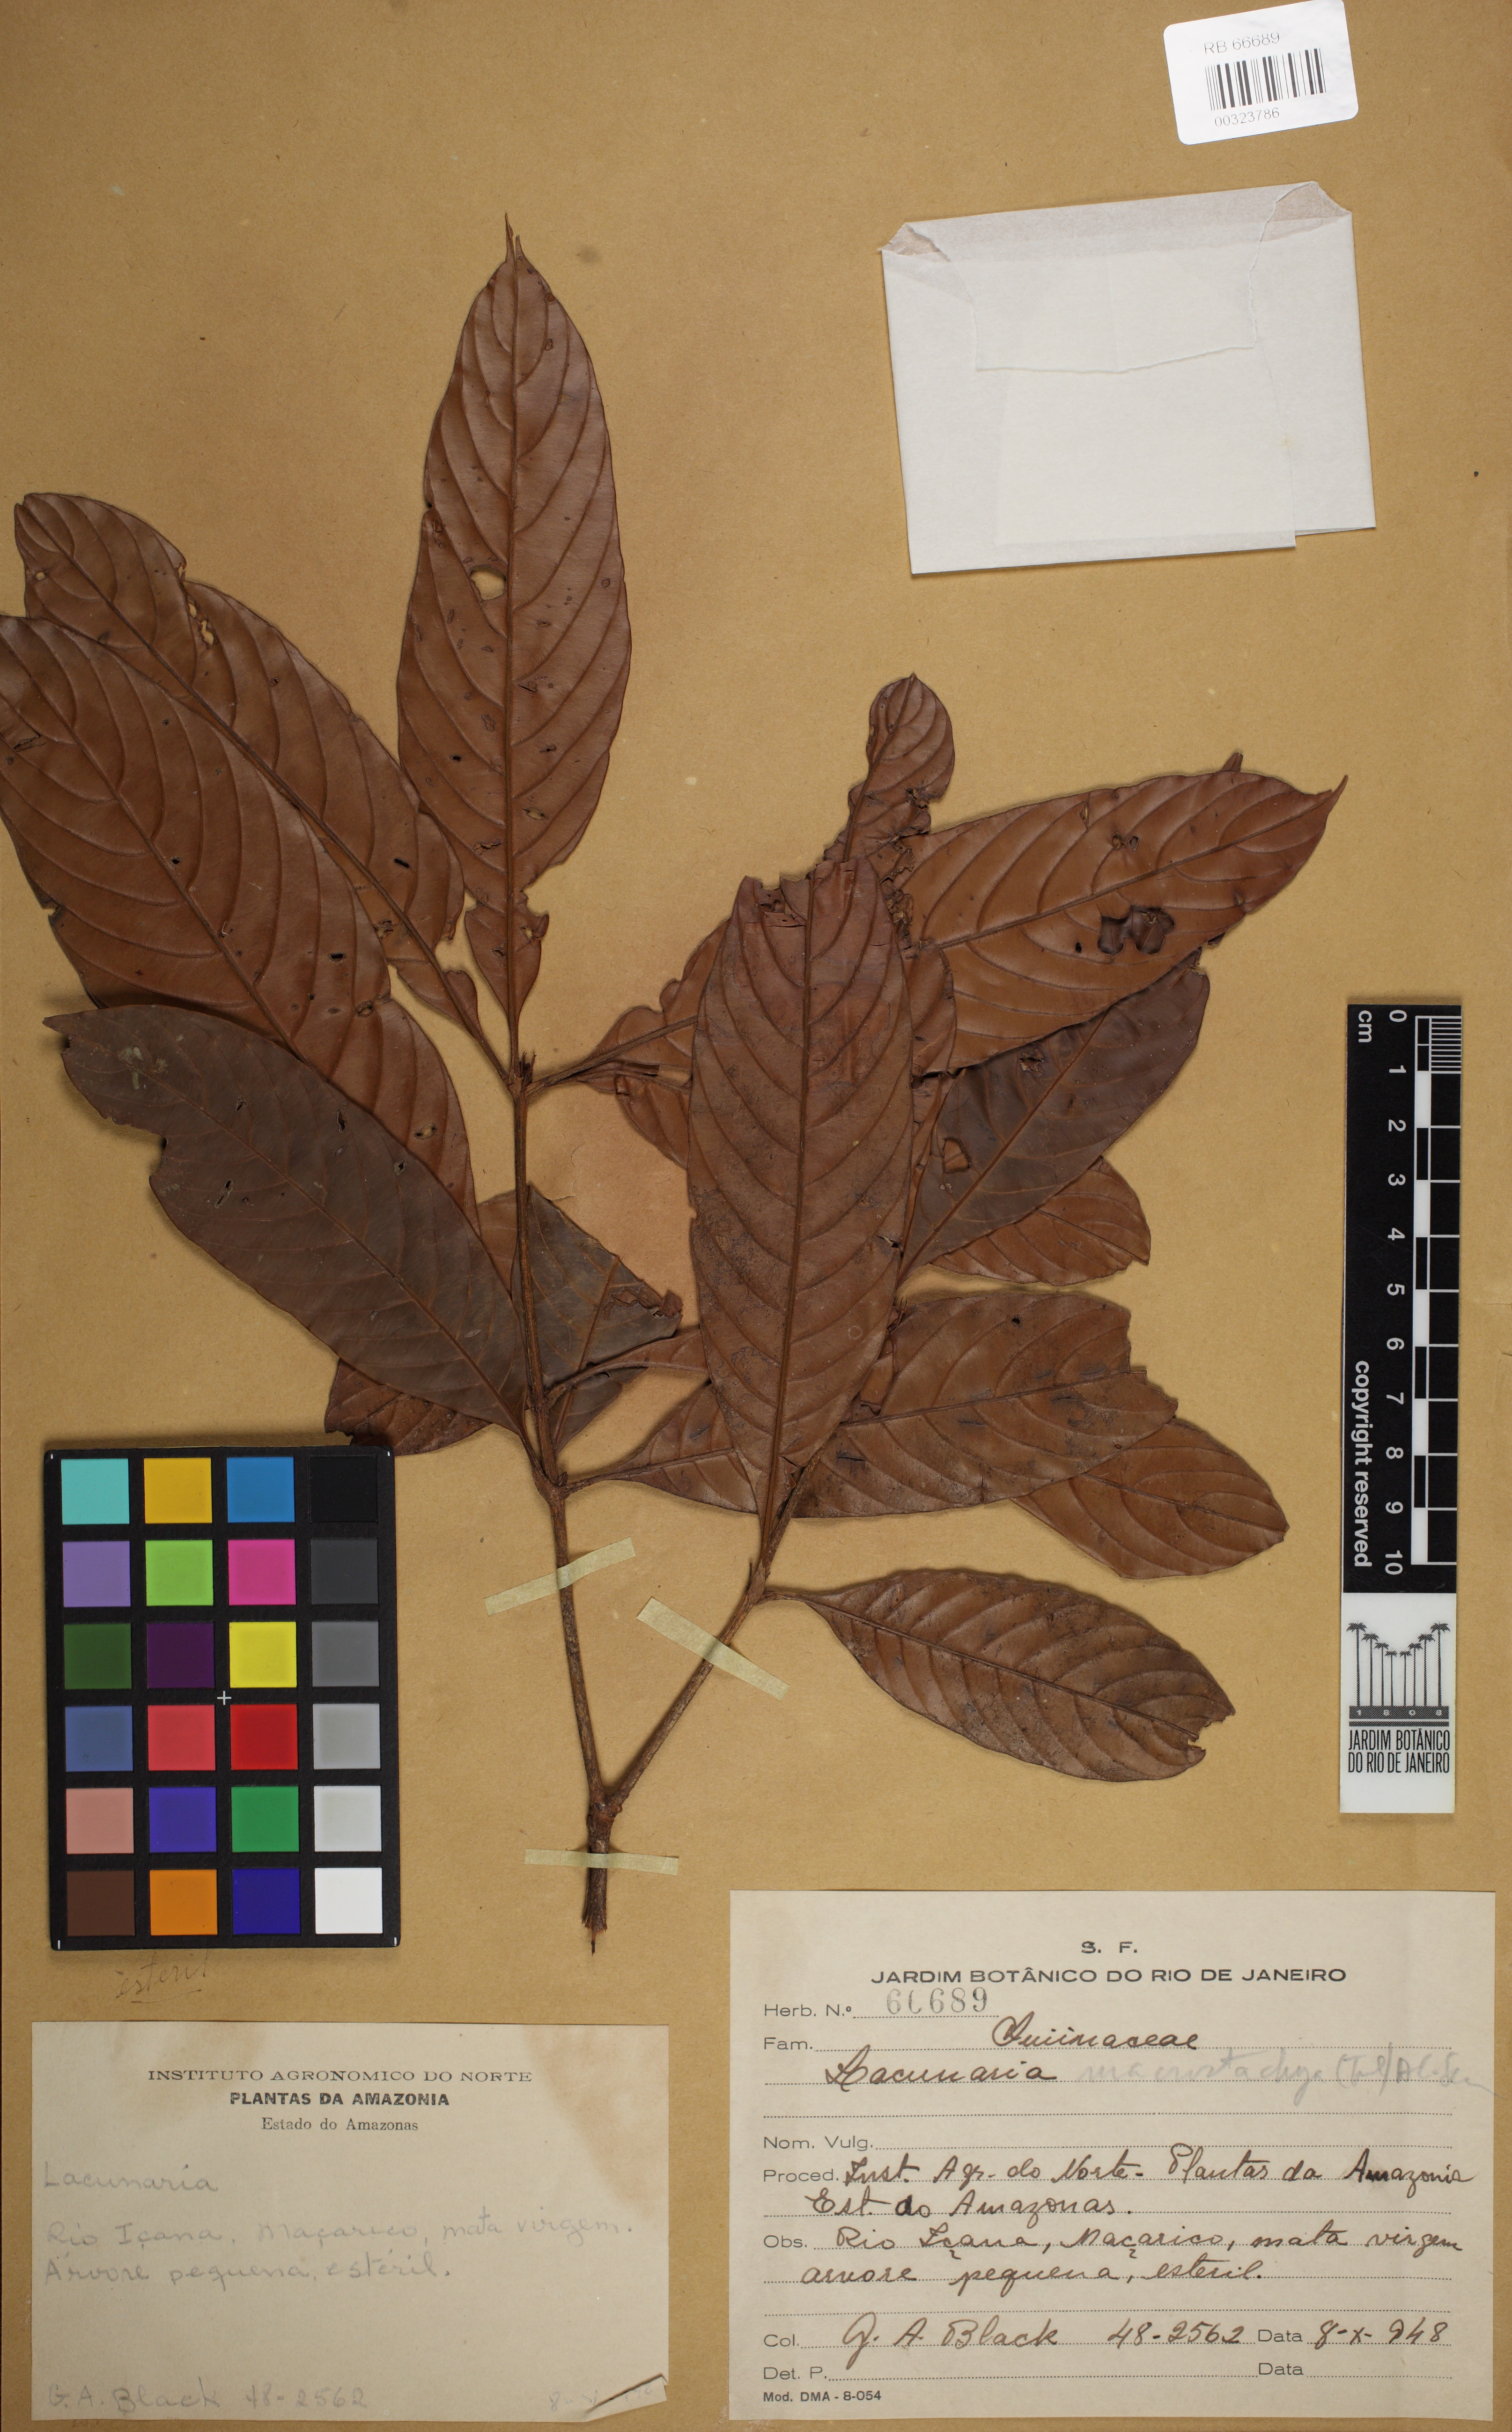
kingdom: Plantae
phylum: Tracheophyta
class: Magnoliopsida
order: Malpighiales
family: Quiinaceae
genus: Lacunaria
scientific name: Lacunaria macrostachya
